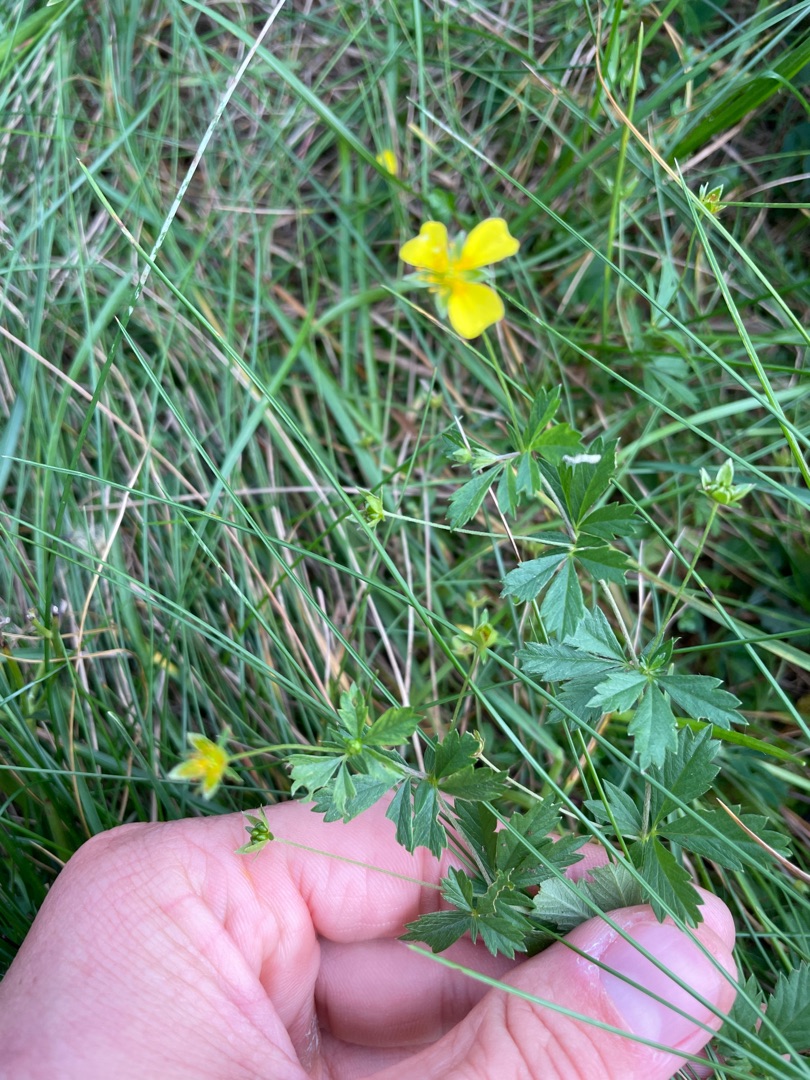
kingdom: Plantae
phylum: Tracheophyta
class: Magnoliopsida
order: Rosales
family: Rosaceae
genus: Potentilla
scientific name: Potentilla erecta
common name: Tormentil
